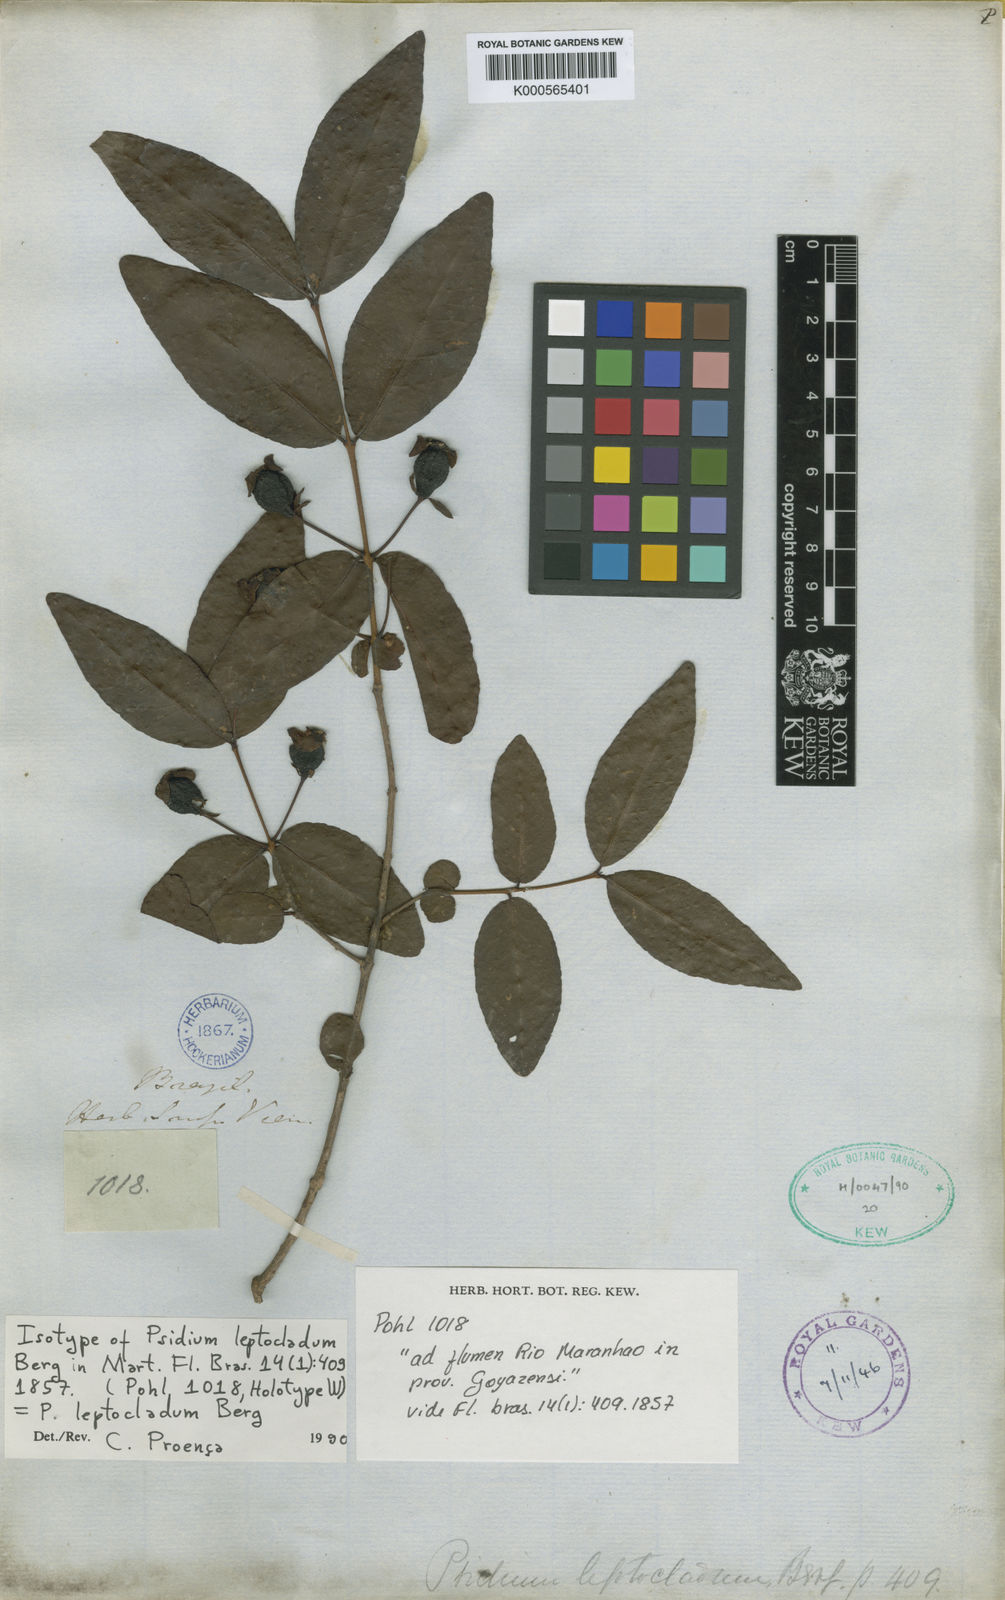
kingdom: Plantae
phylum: Tracheophyta
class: Magnoliopsida
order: Myrtales
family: Myrtaceae
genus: Psidium
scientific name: Psidium striatulum
